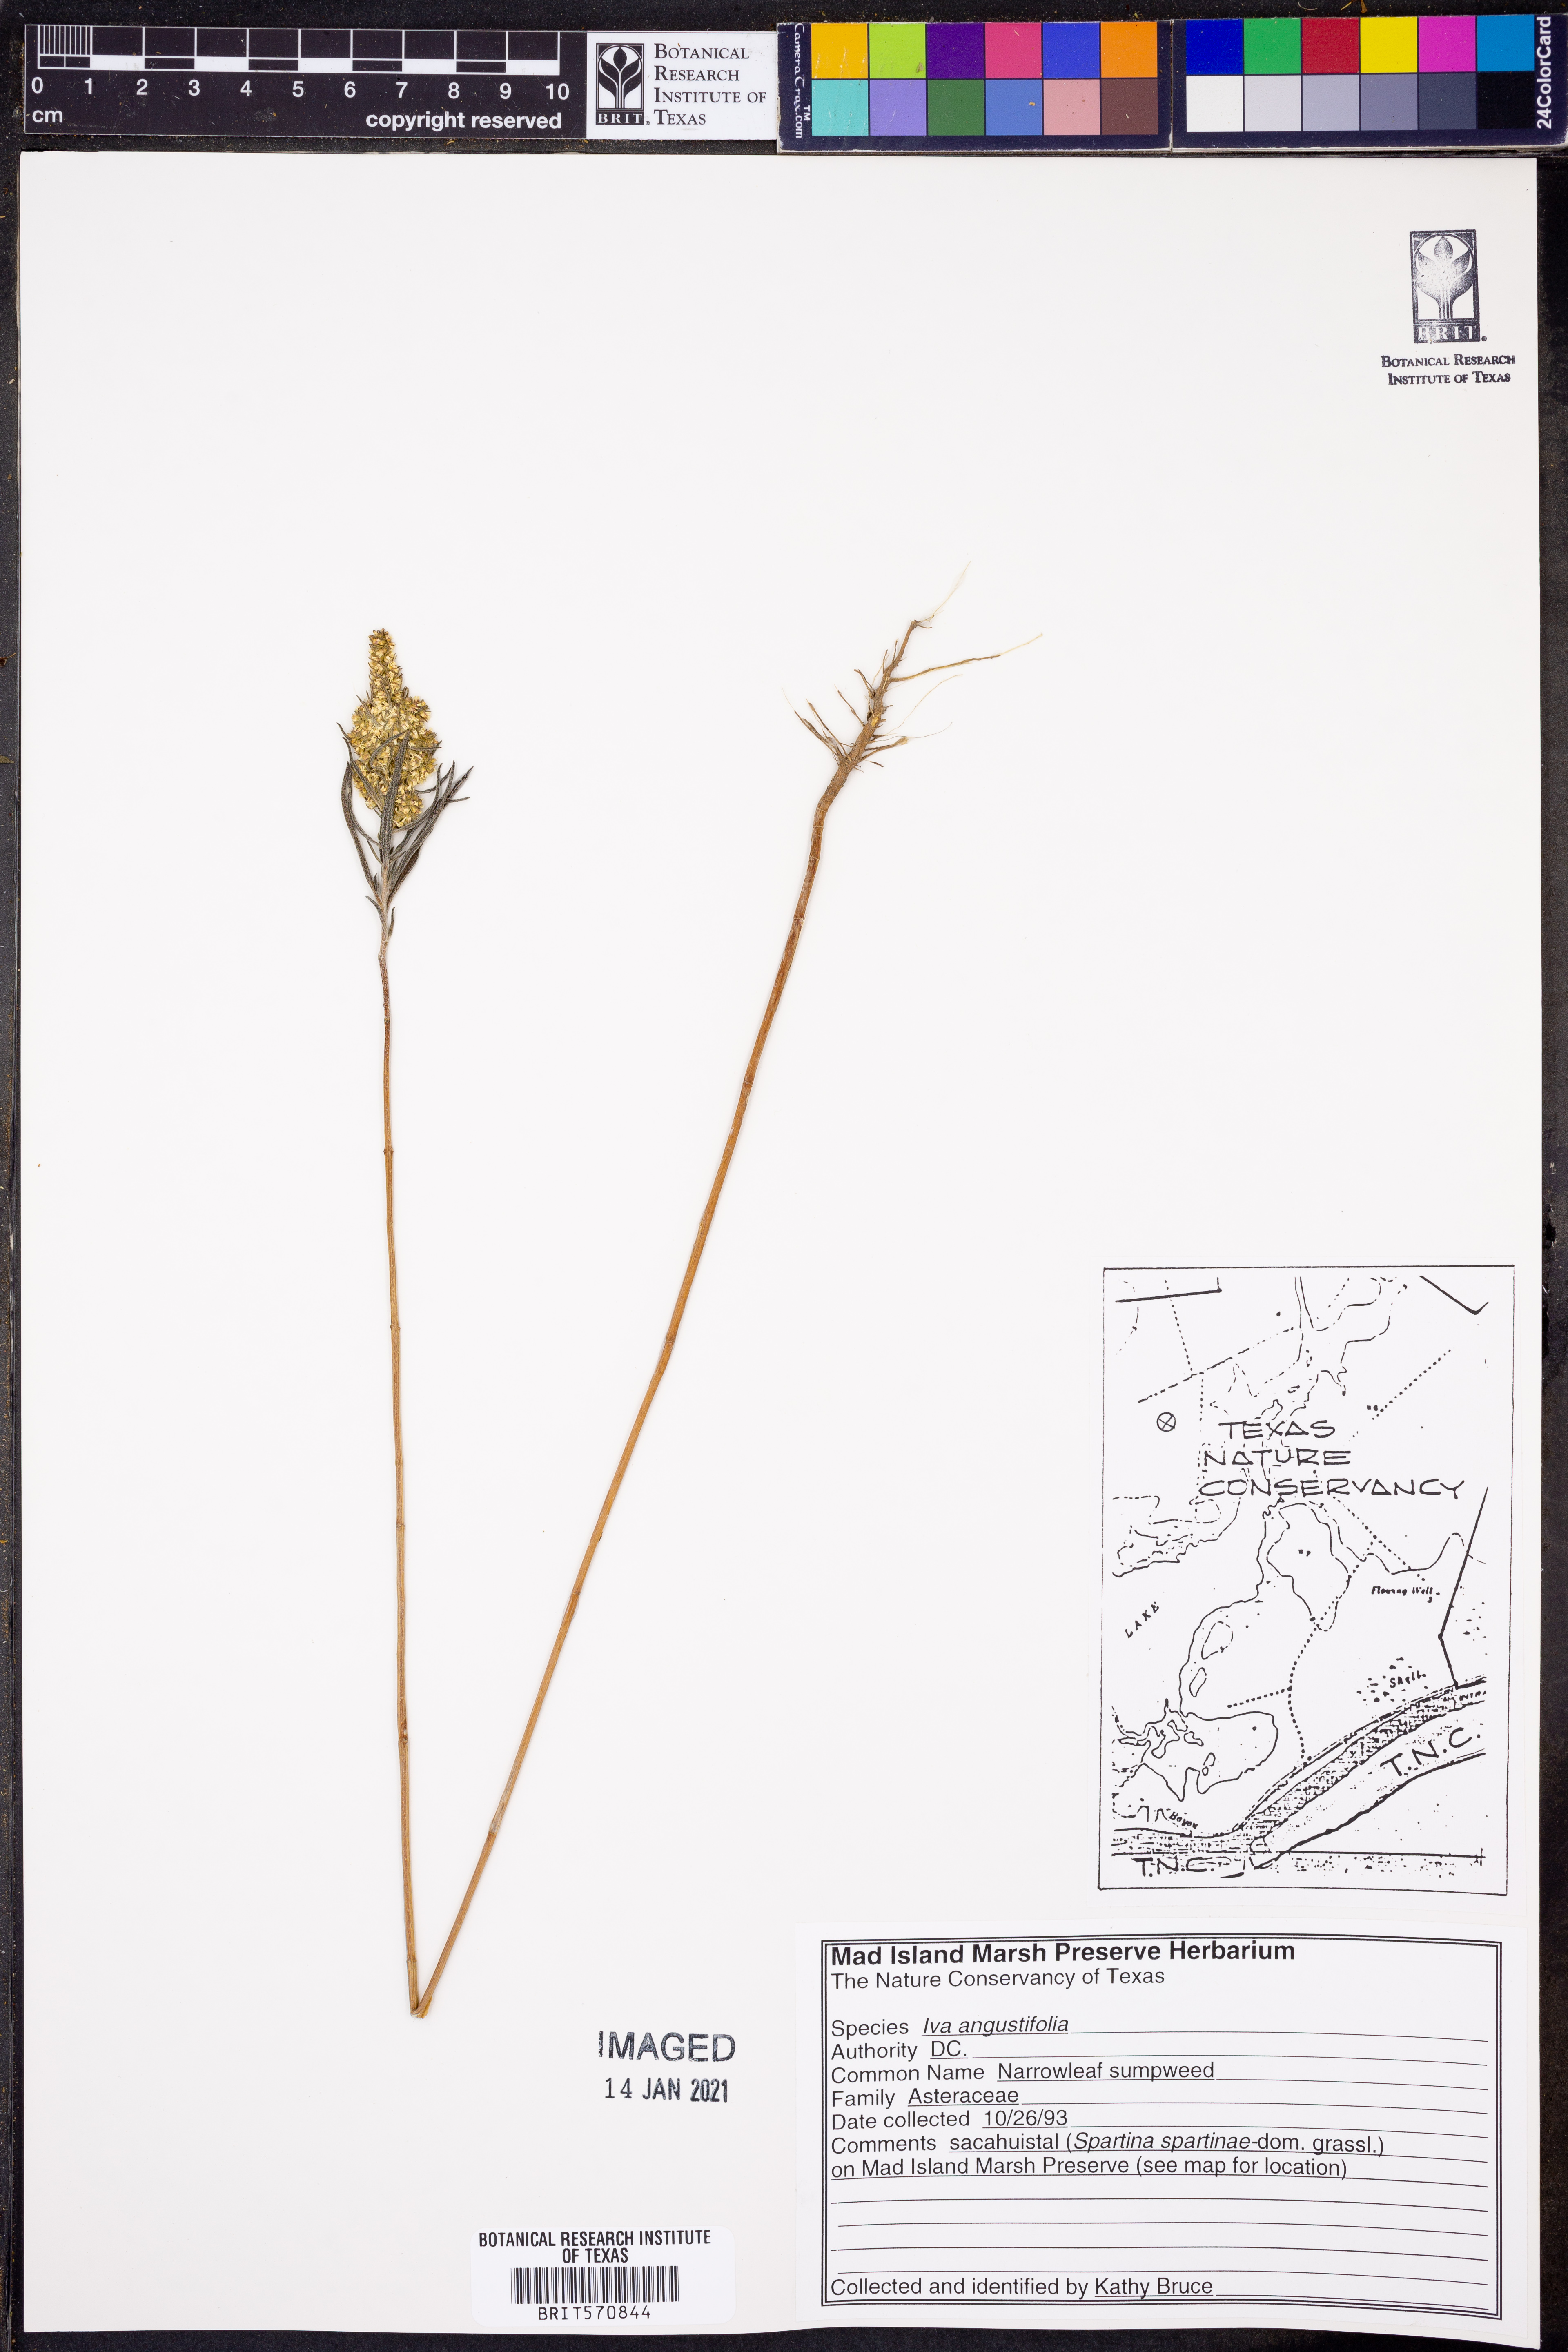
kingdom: Plantae
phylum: Tracheophyta
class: Magnoliopsida
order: Asterales
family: Asteraceae
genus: Iva
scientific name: Iva asperifolia
